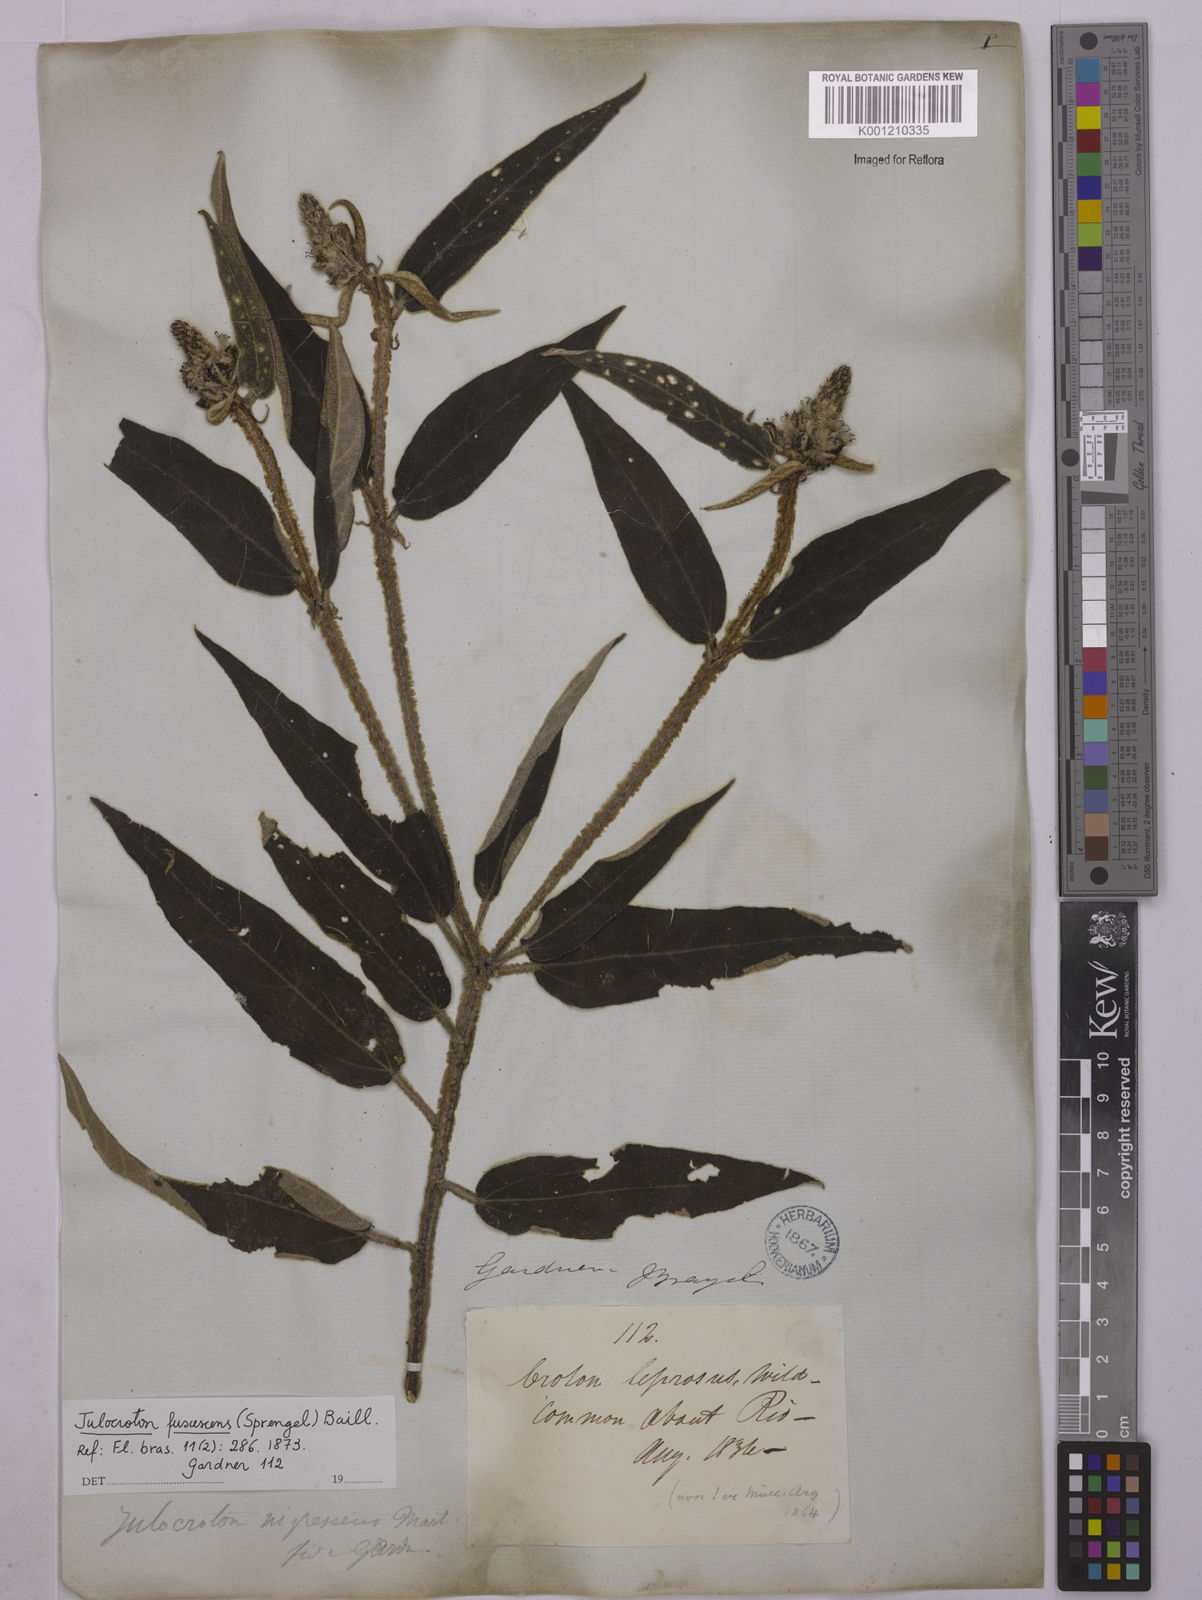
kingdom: Plantae
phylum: Tracheophyta
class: Magnoliopsida
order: Malpighiales
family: Euphorbiaceae
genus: Croton
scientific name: Croton gnaphaloides
